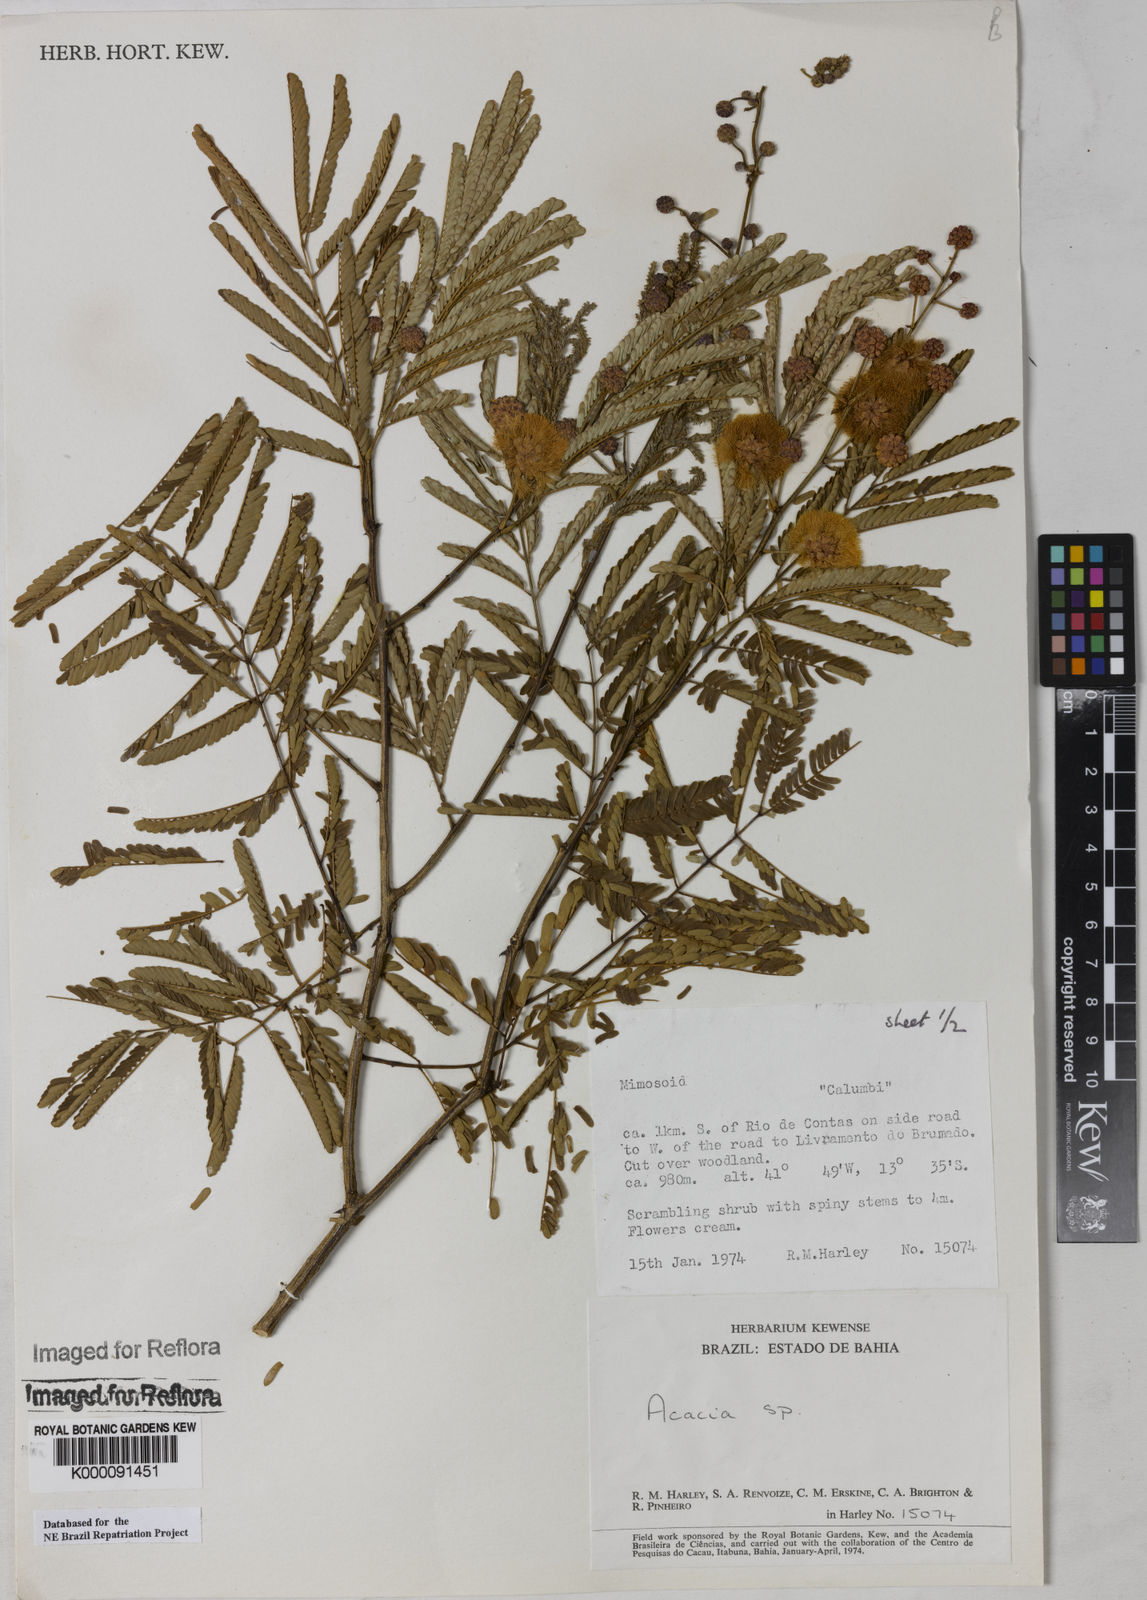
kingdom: Plantae
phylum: Tracheophyta
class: Magnoliopsida
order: Fabales
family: Fabaceae
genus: Acacia
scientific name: Acacia
